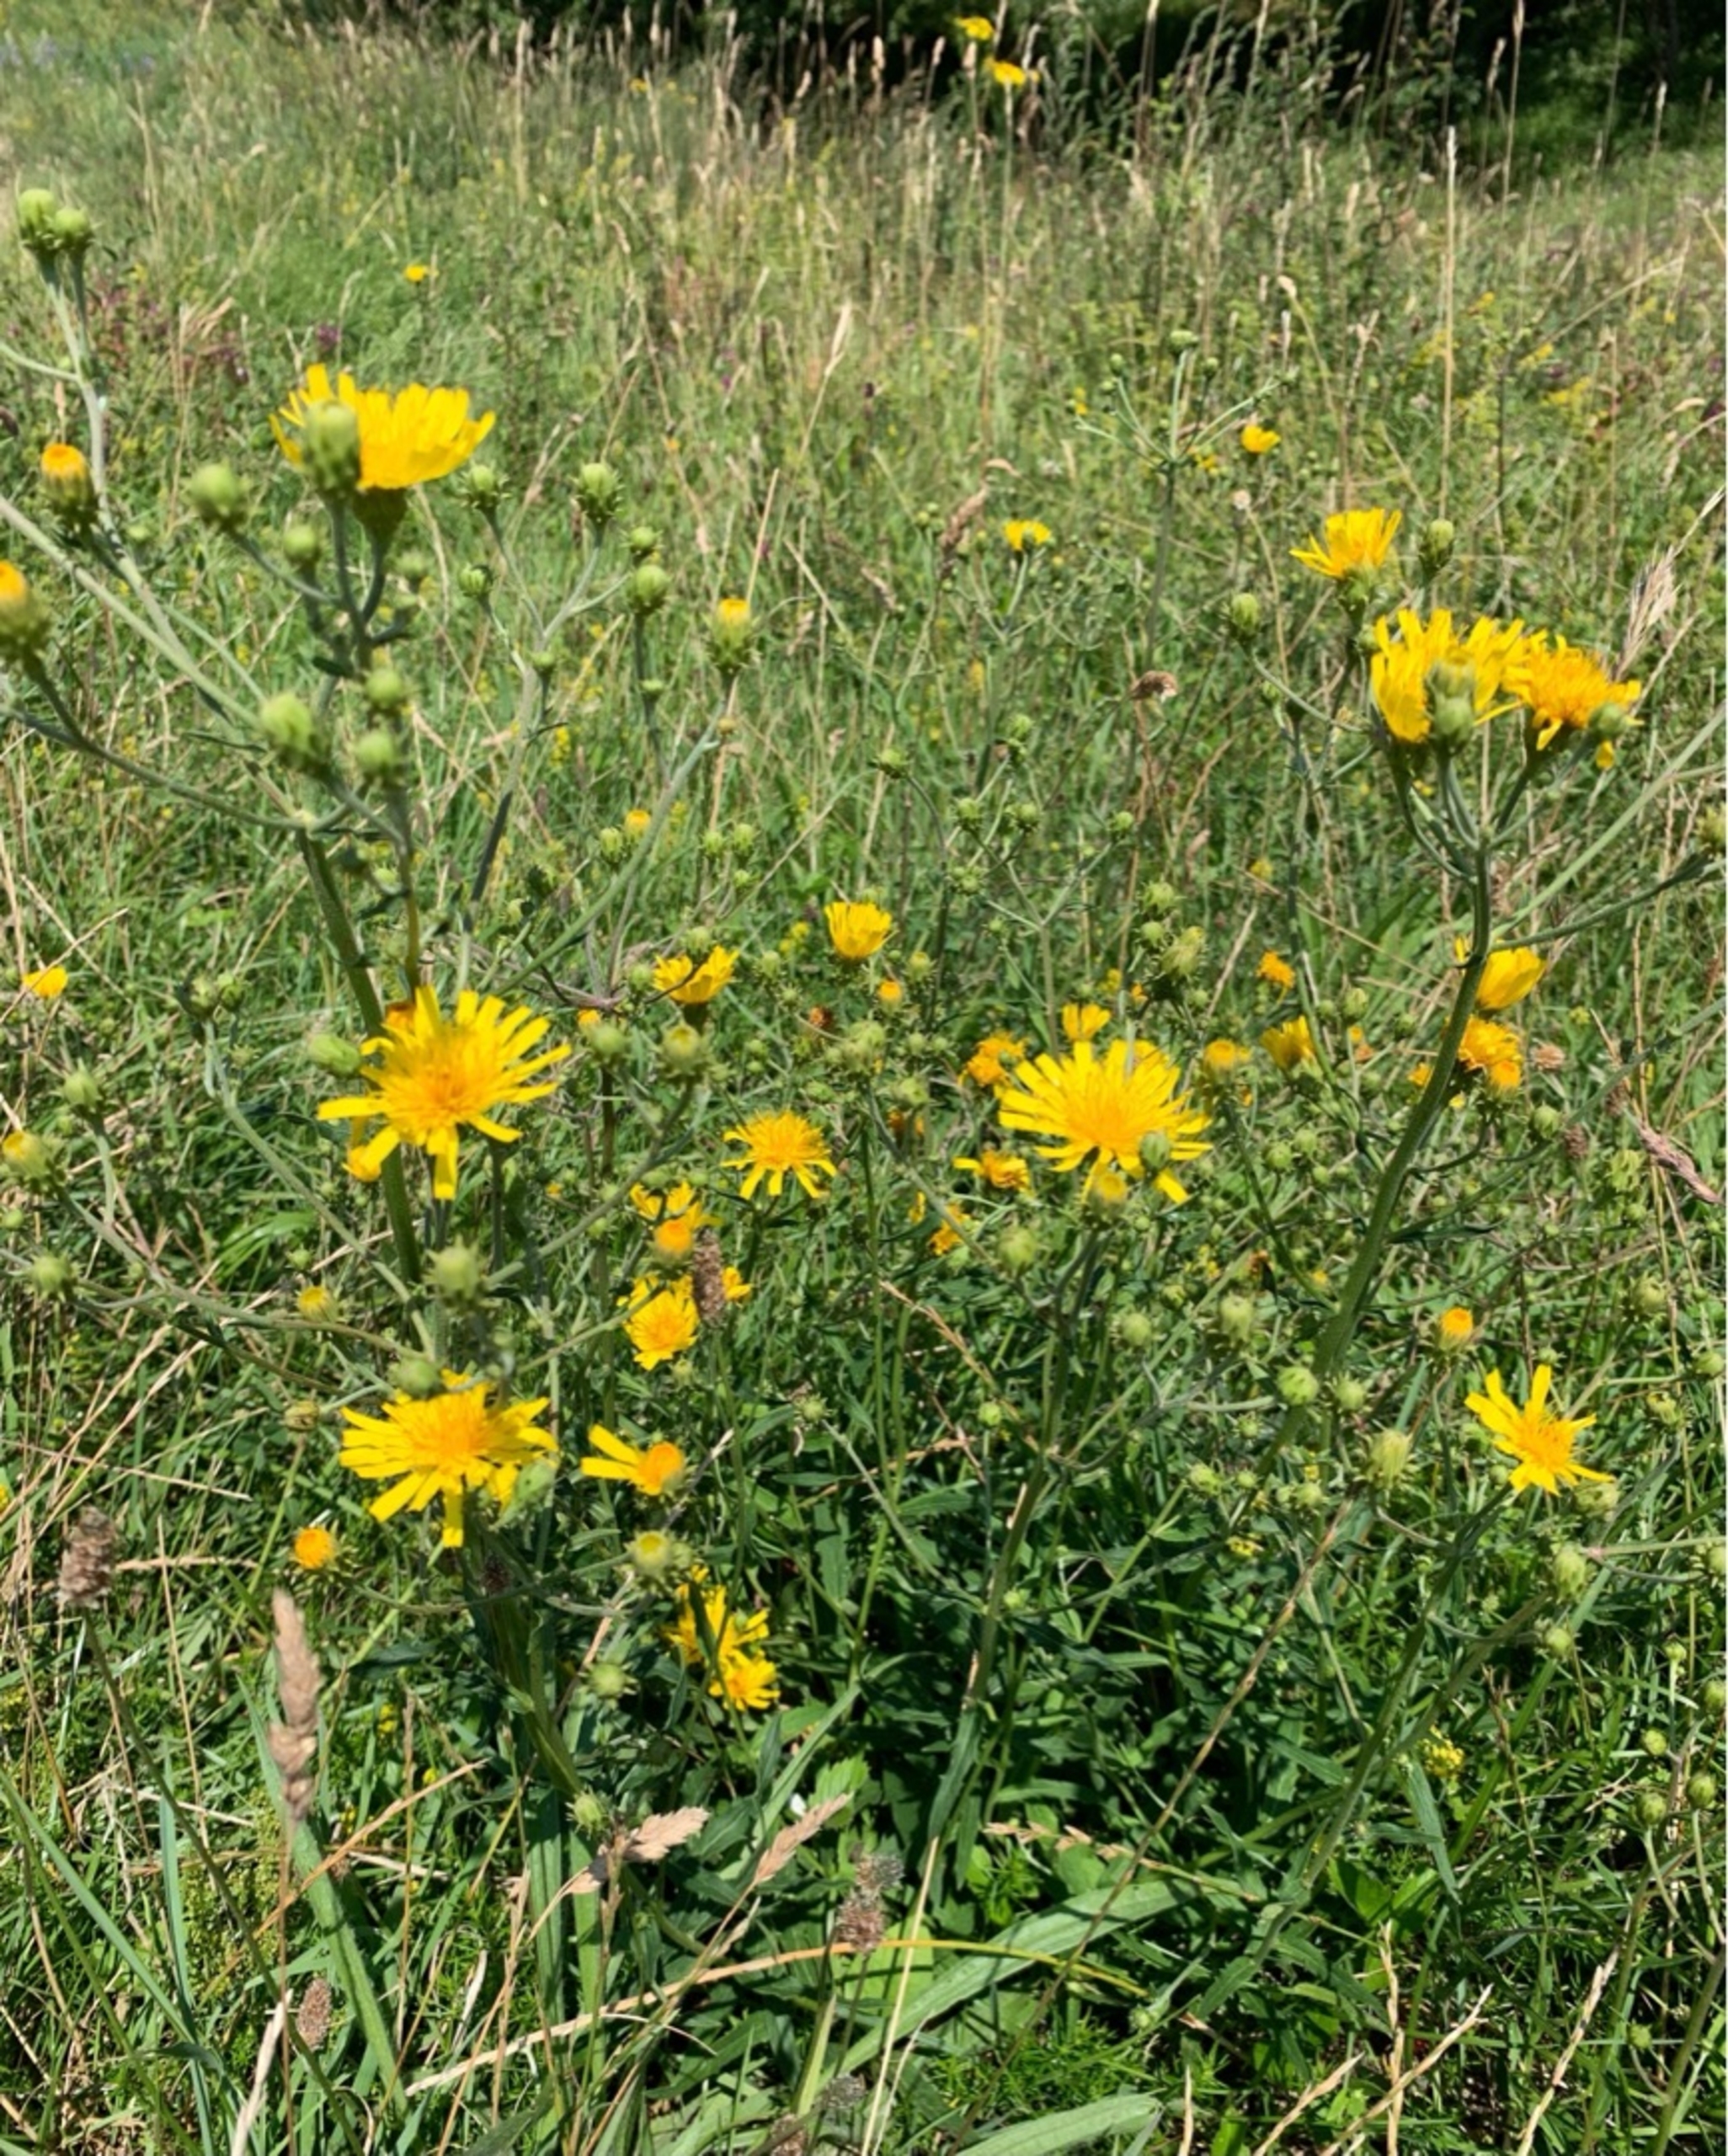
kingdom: Plantae
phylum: Tracheophyta
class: Magnoliopsida
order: Asterales
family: Asteraceae
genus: Hieracium
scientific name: Hieracium umbellatum
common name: Smalbladet høgeurt
